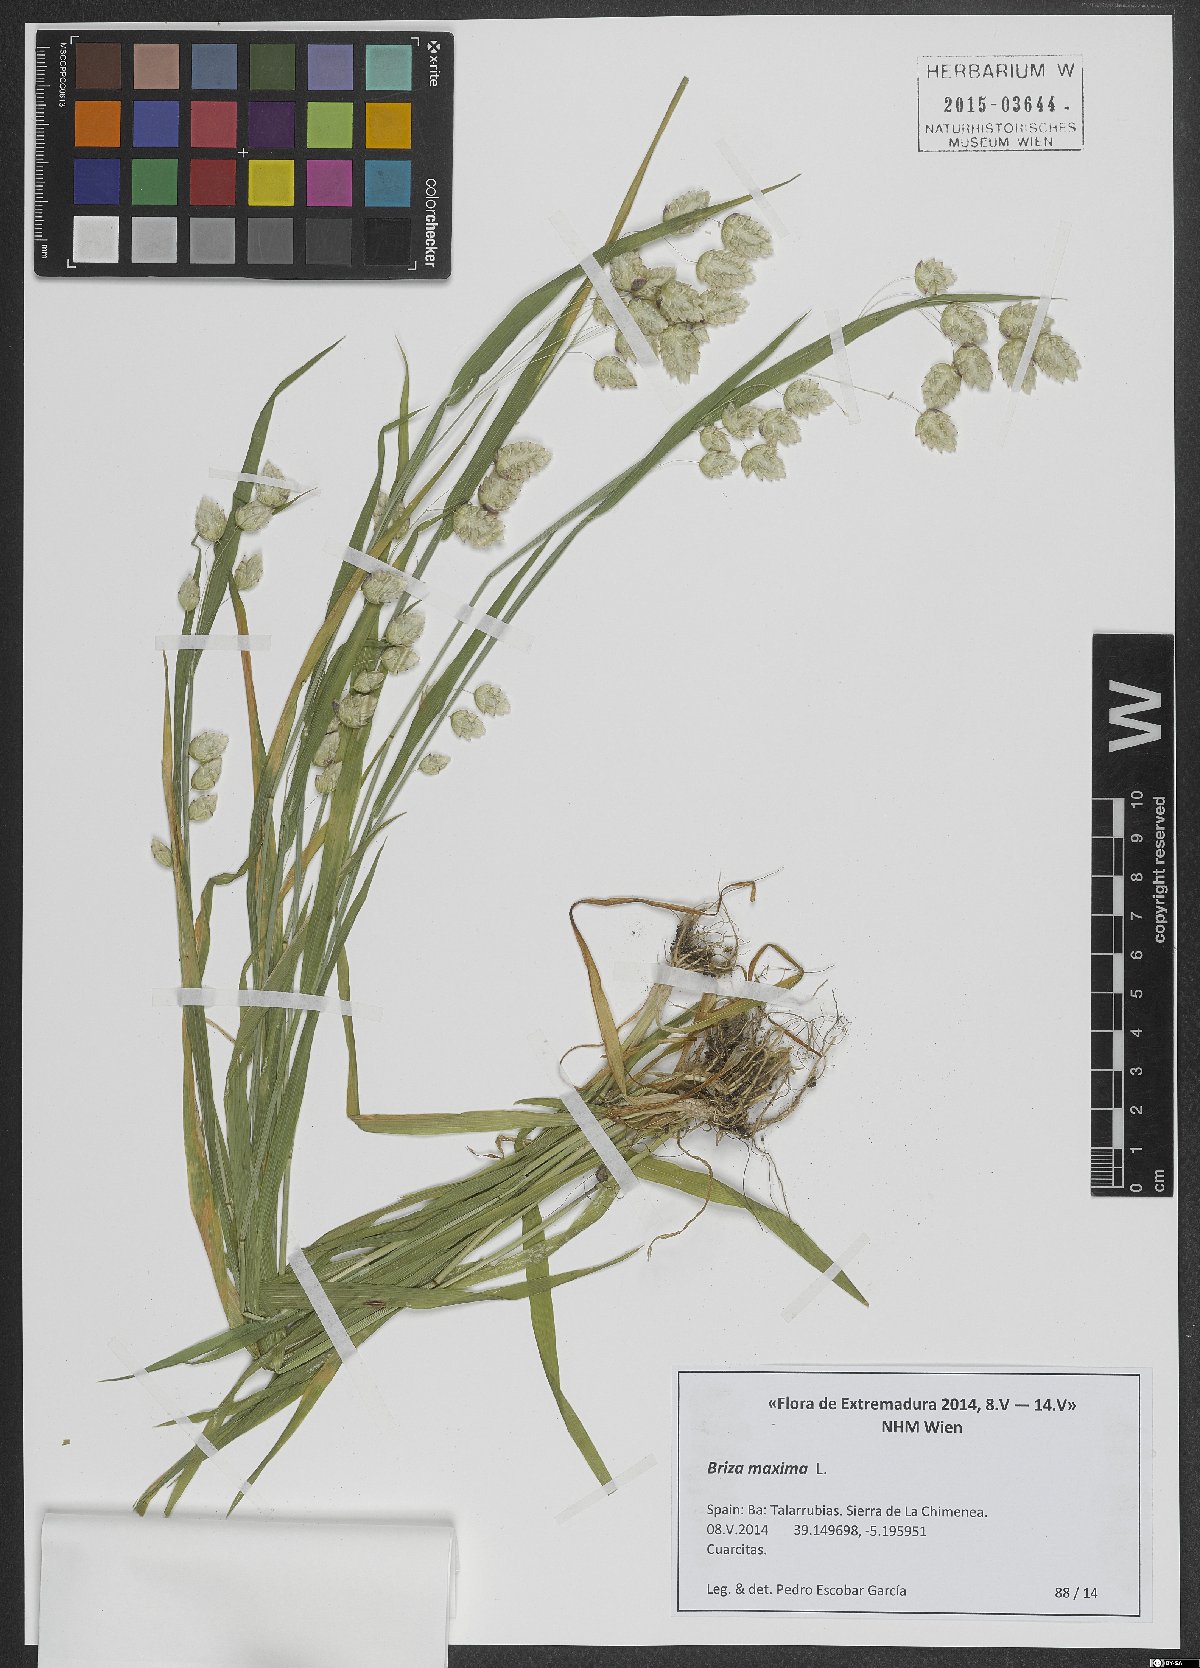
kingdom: Plantae
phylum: Tracheophyta
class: Liliopsida
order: Poales
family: Poaceae
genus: Briza
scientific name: Briza maxima
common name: Big quakinggrass
